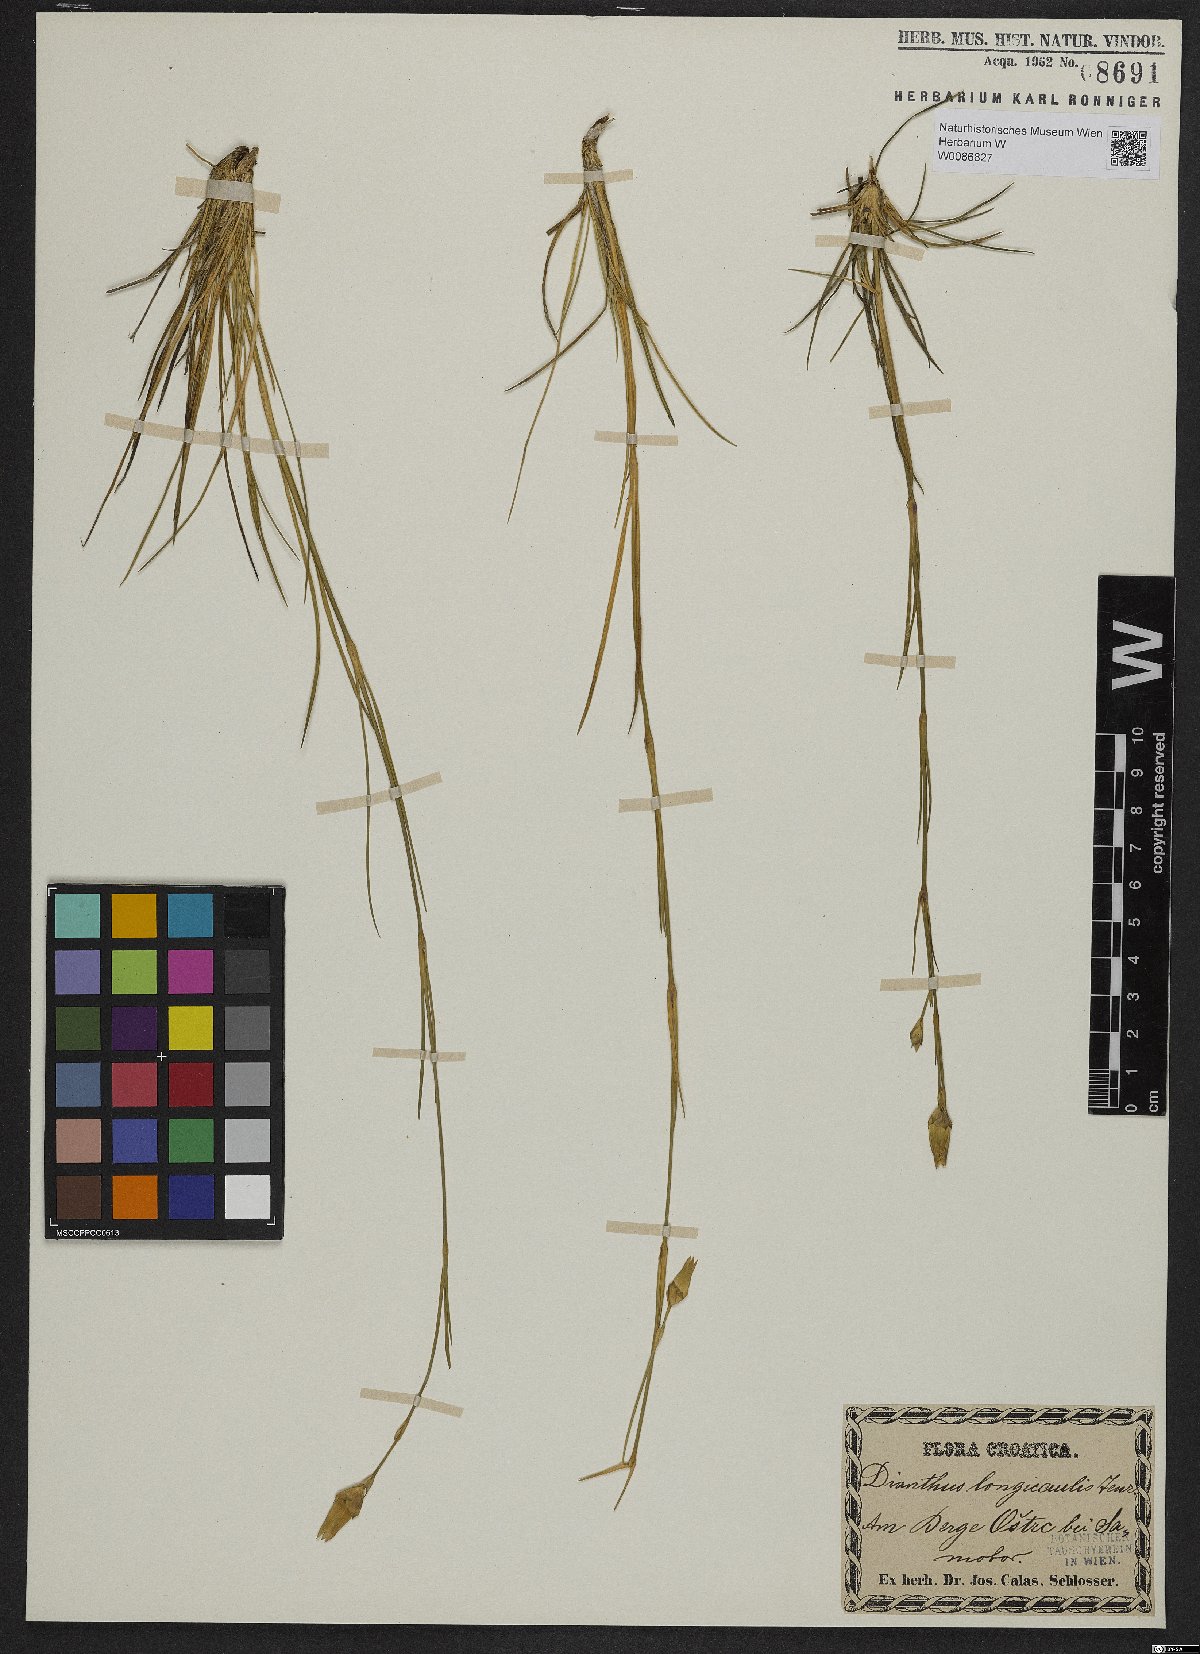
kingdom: Plantae
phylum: Tracheophyta
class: Magnoliopsida
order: Caryophyllales
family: Caryophyllaceae
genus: Dianthus
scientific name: Dianthus siculus
